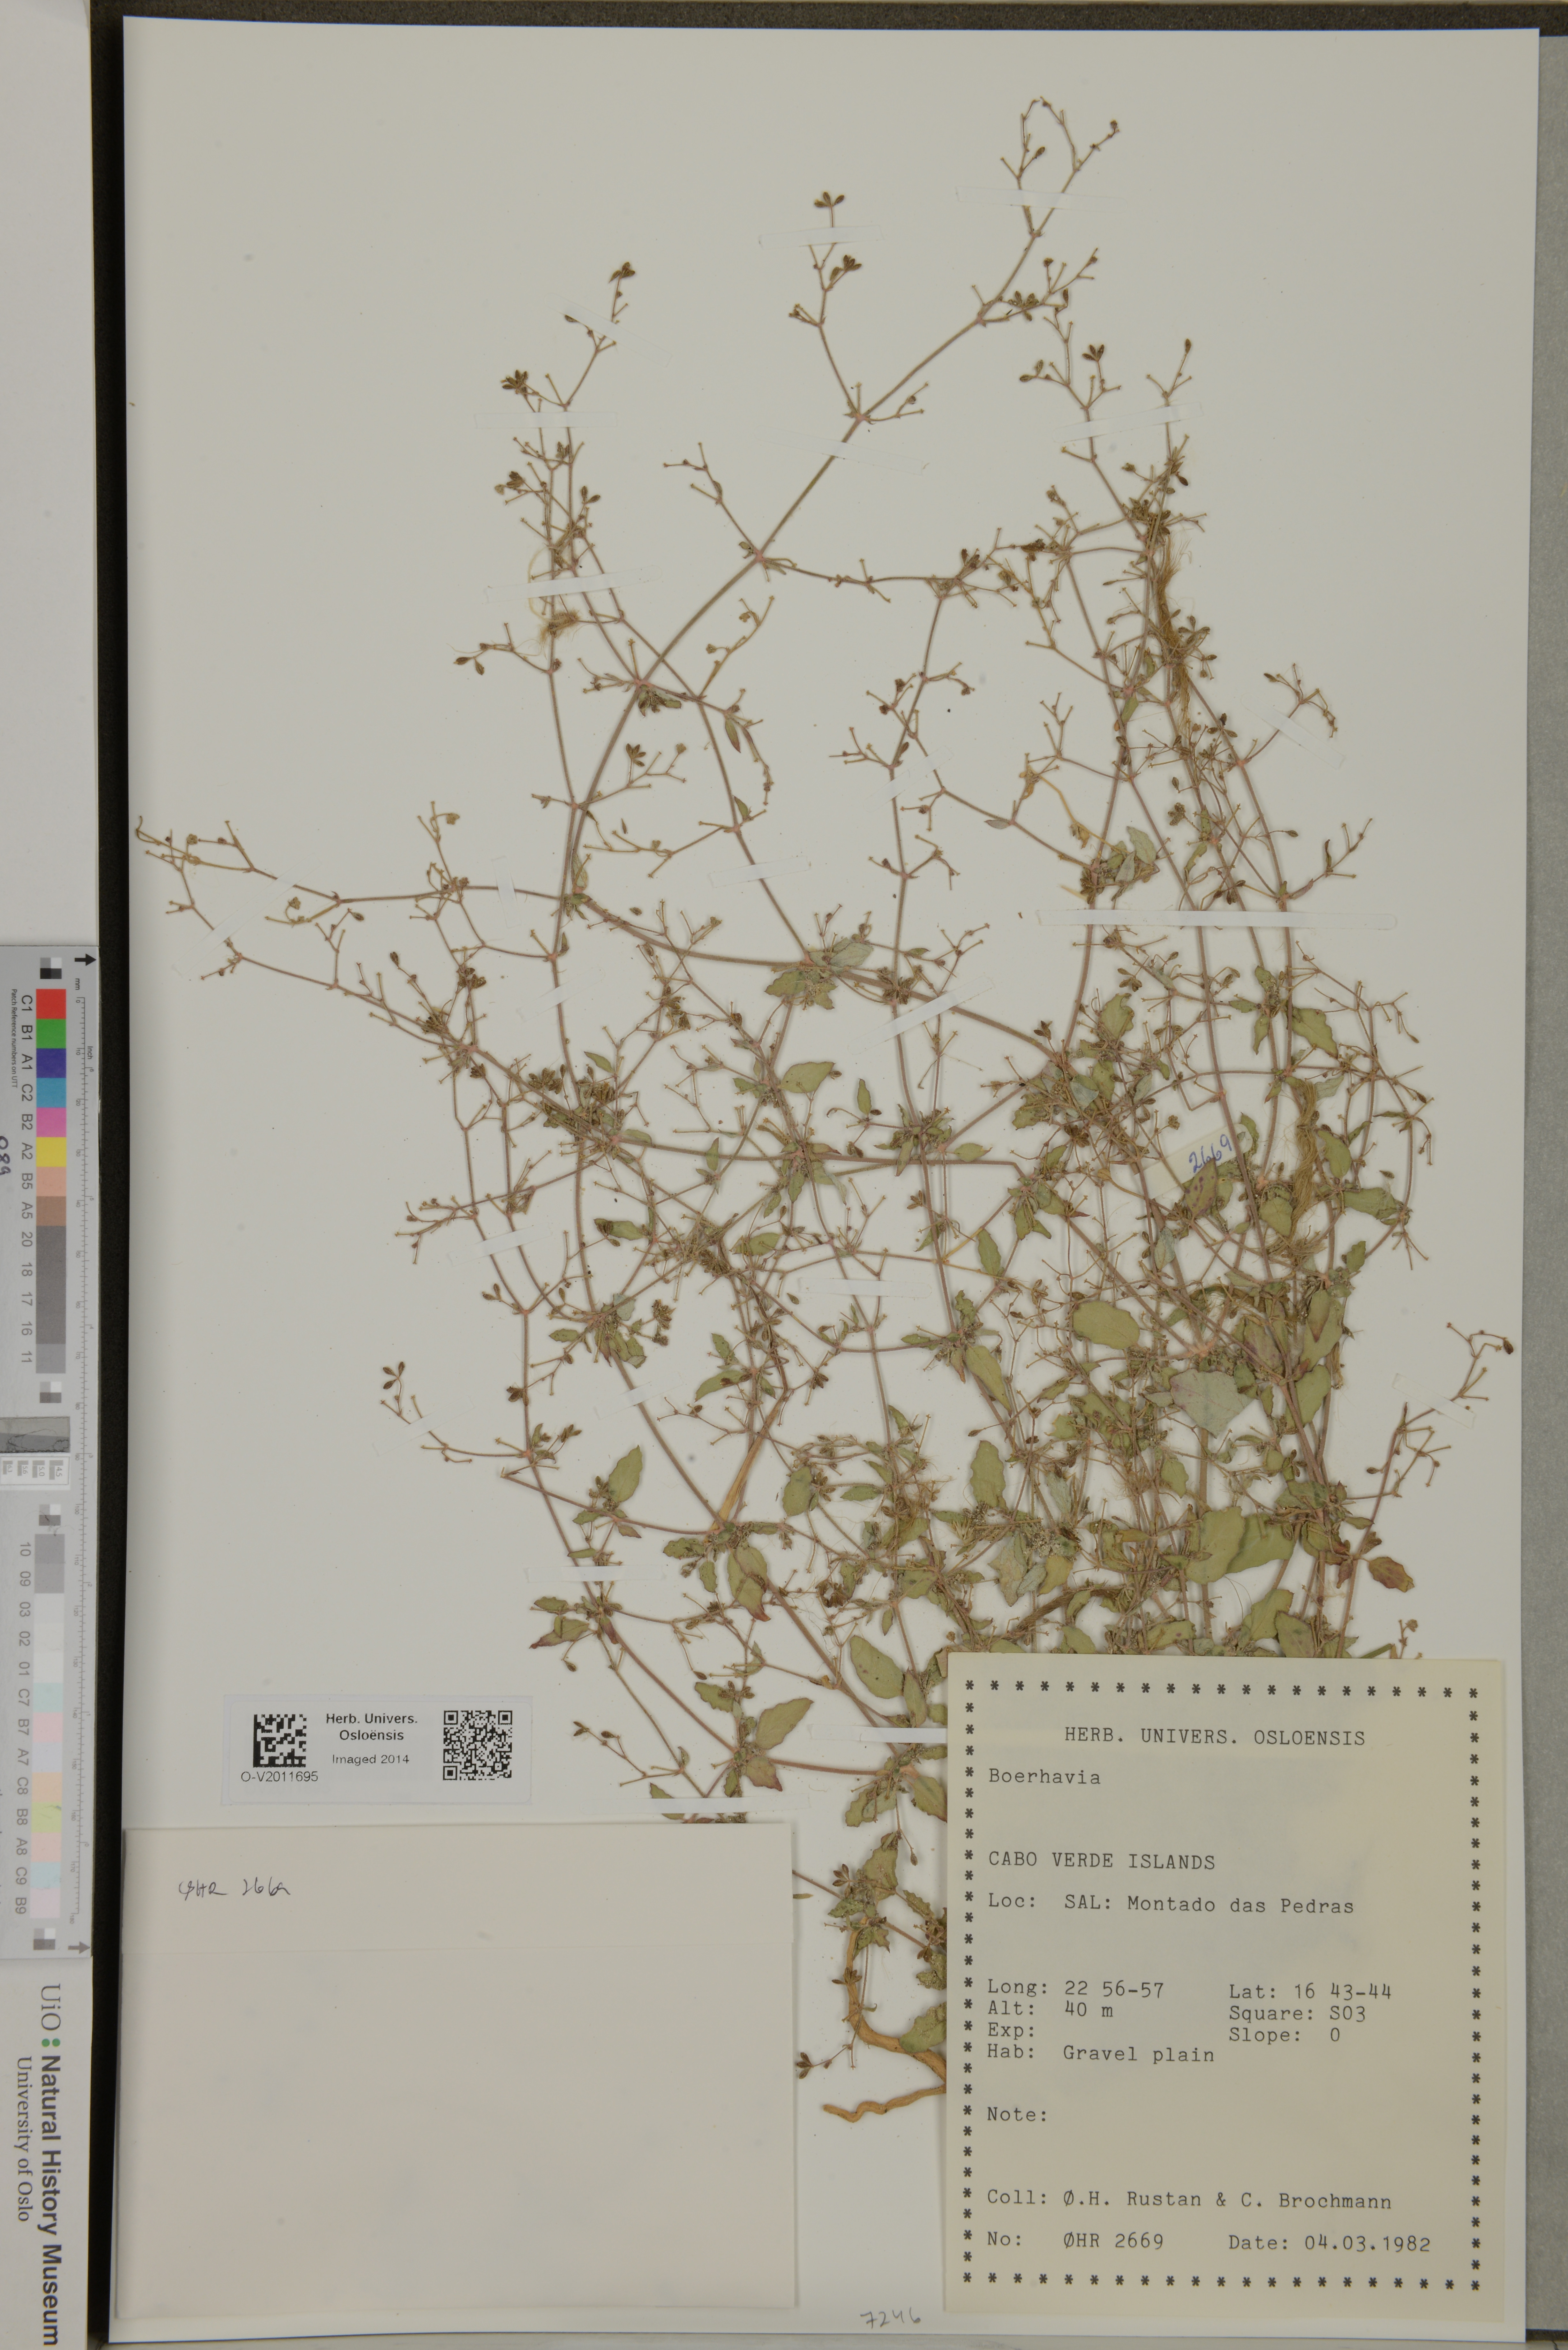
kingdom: Plantae
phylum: Tracheophyta
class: Magnoliopsida
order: Caryophyllales
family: Nyctaginaceae
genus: Boerhavia
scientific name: Boerhavia
